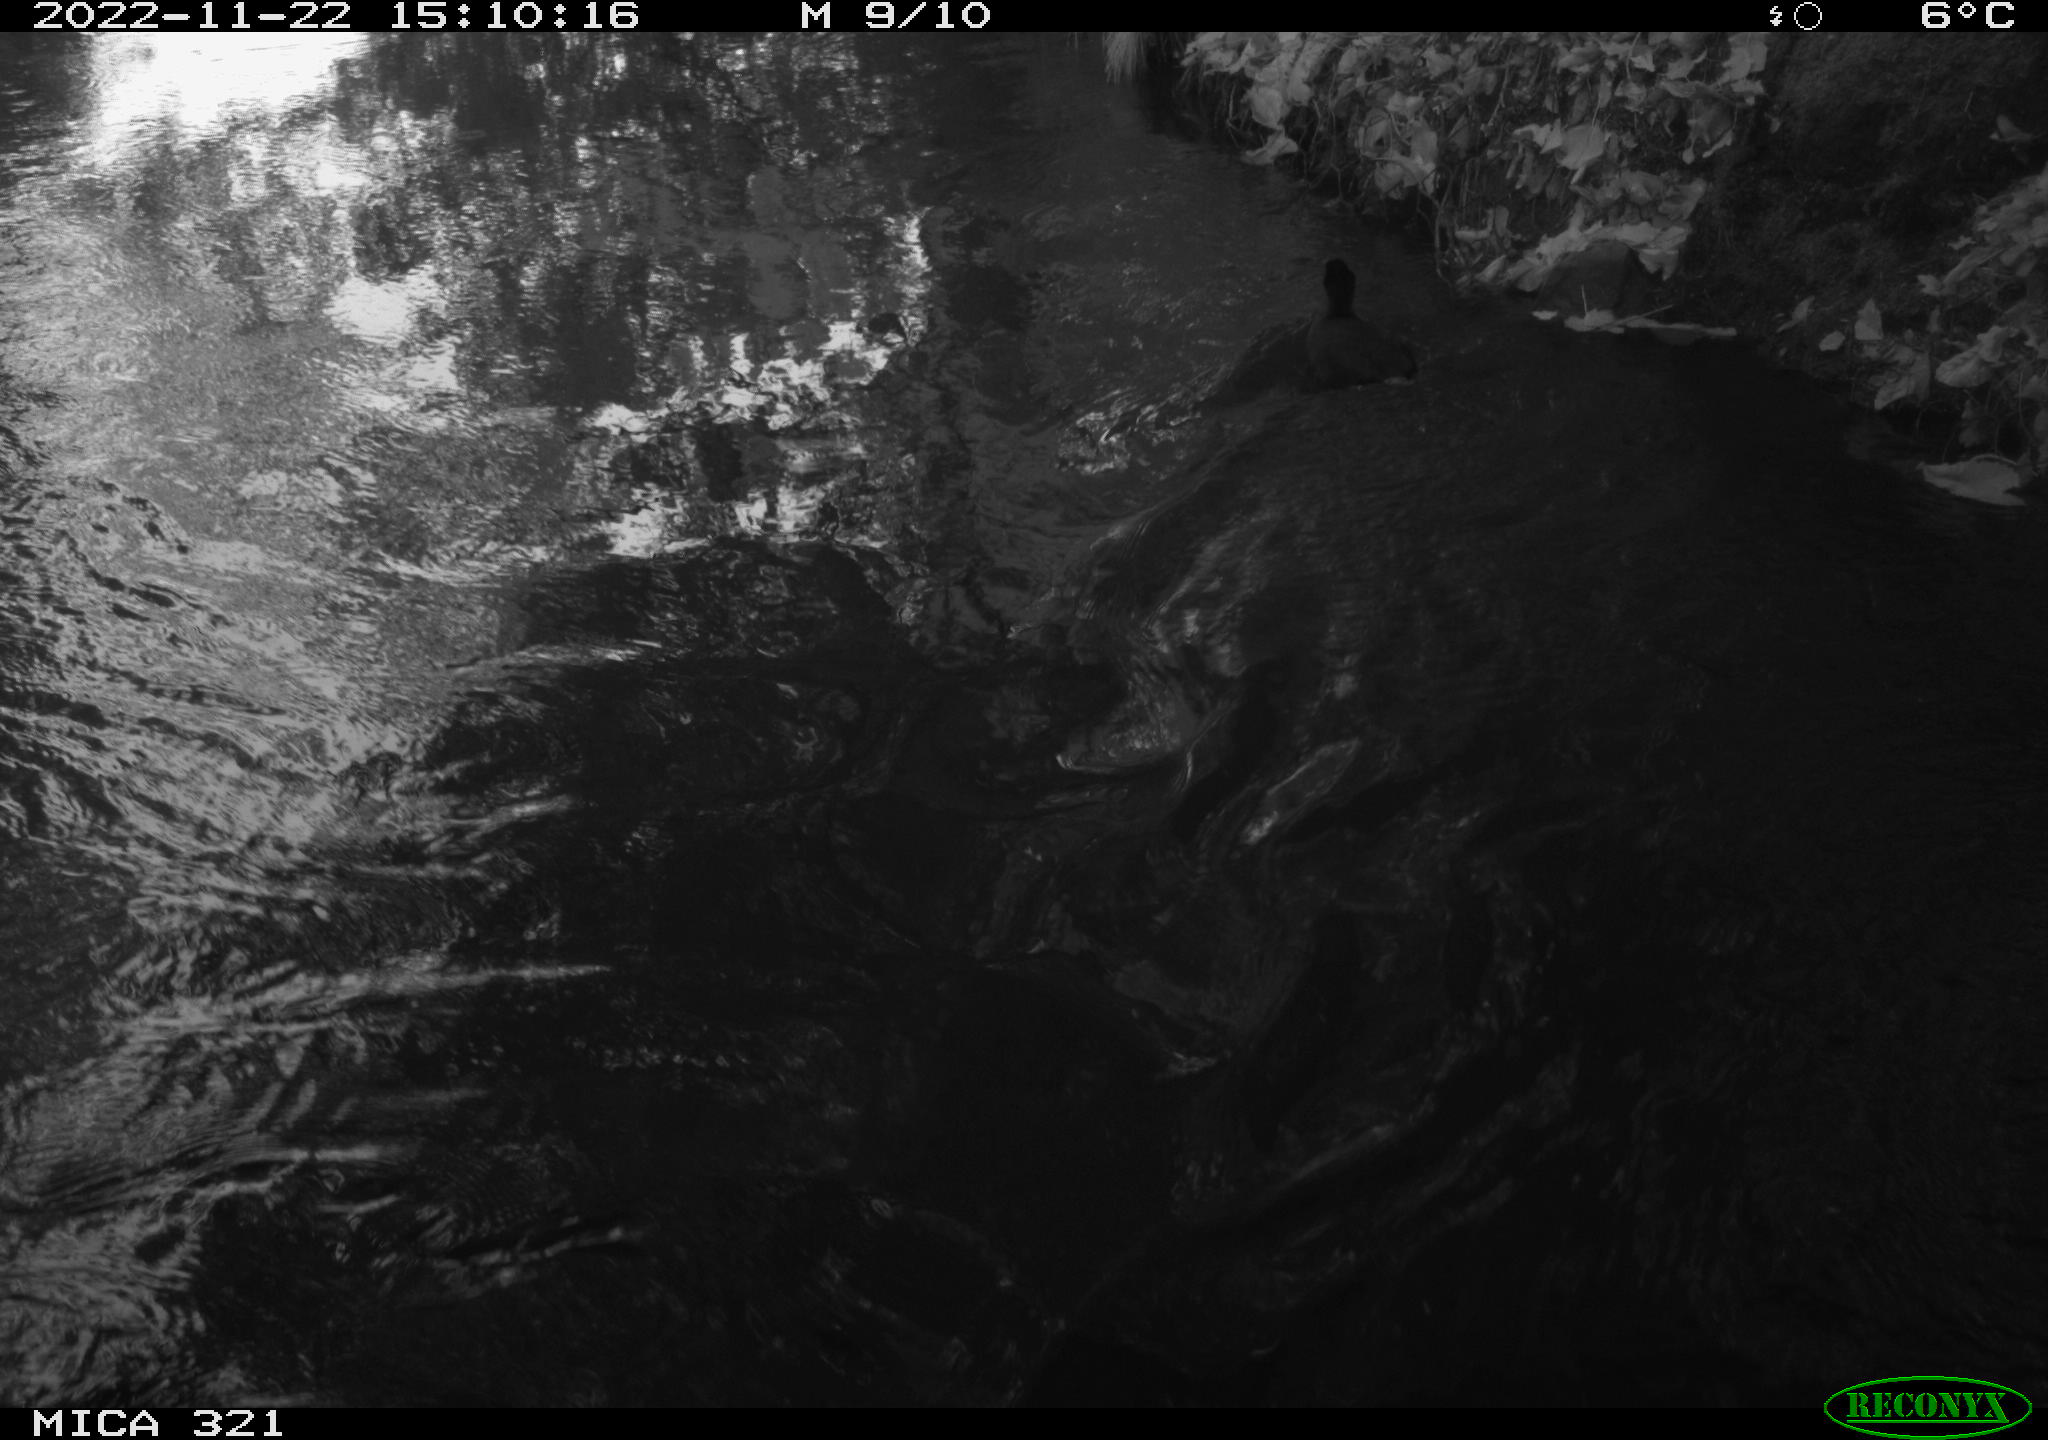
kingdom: Animalia
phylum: Chordata
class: Aves
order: Anseriformes
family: Anatidae
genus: Anas
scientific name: Anas
